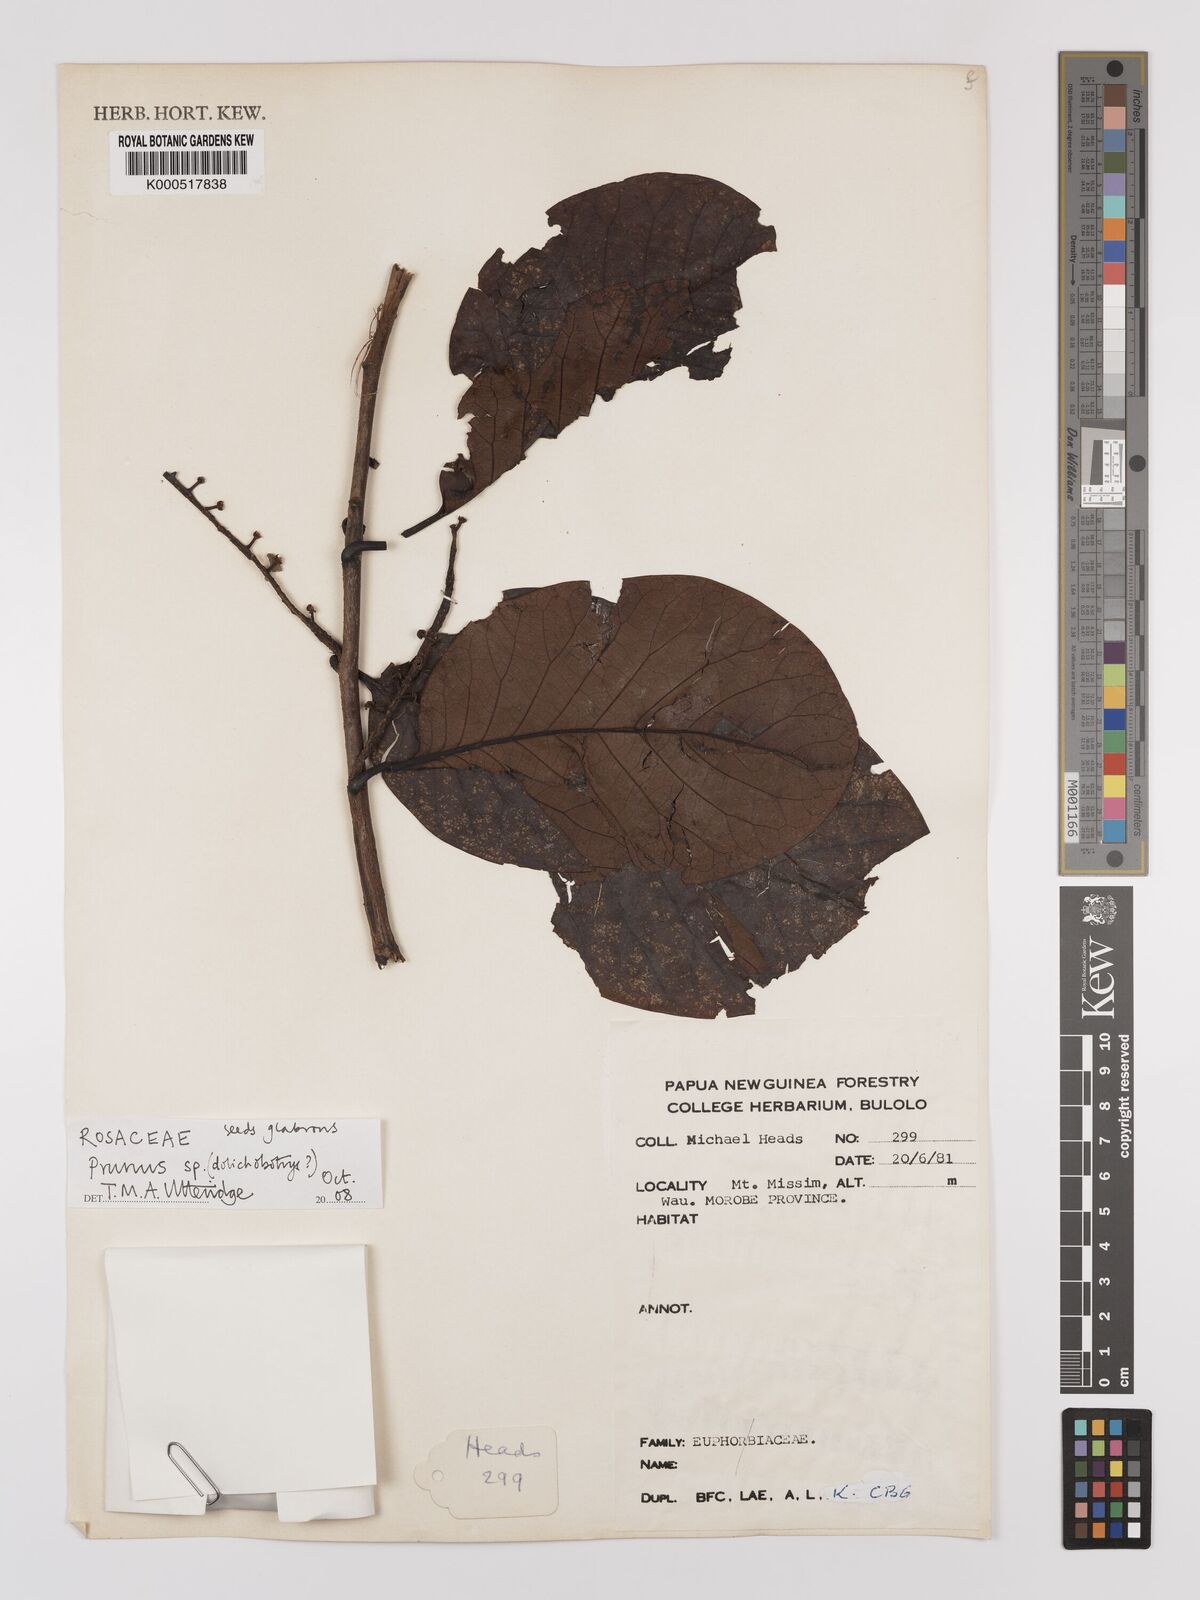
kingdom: Plantae
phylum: Tracheophyta
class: Magnoliopsida
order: Rosales
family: Rosaceae
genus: Prunus
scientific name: Prunus
